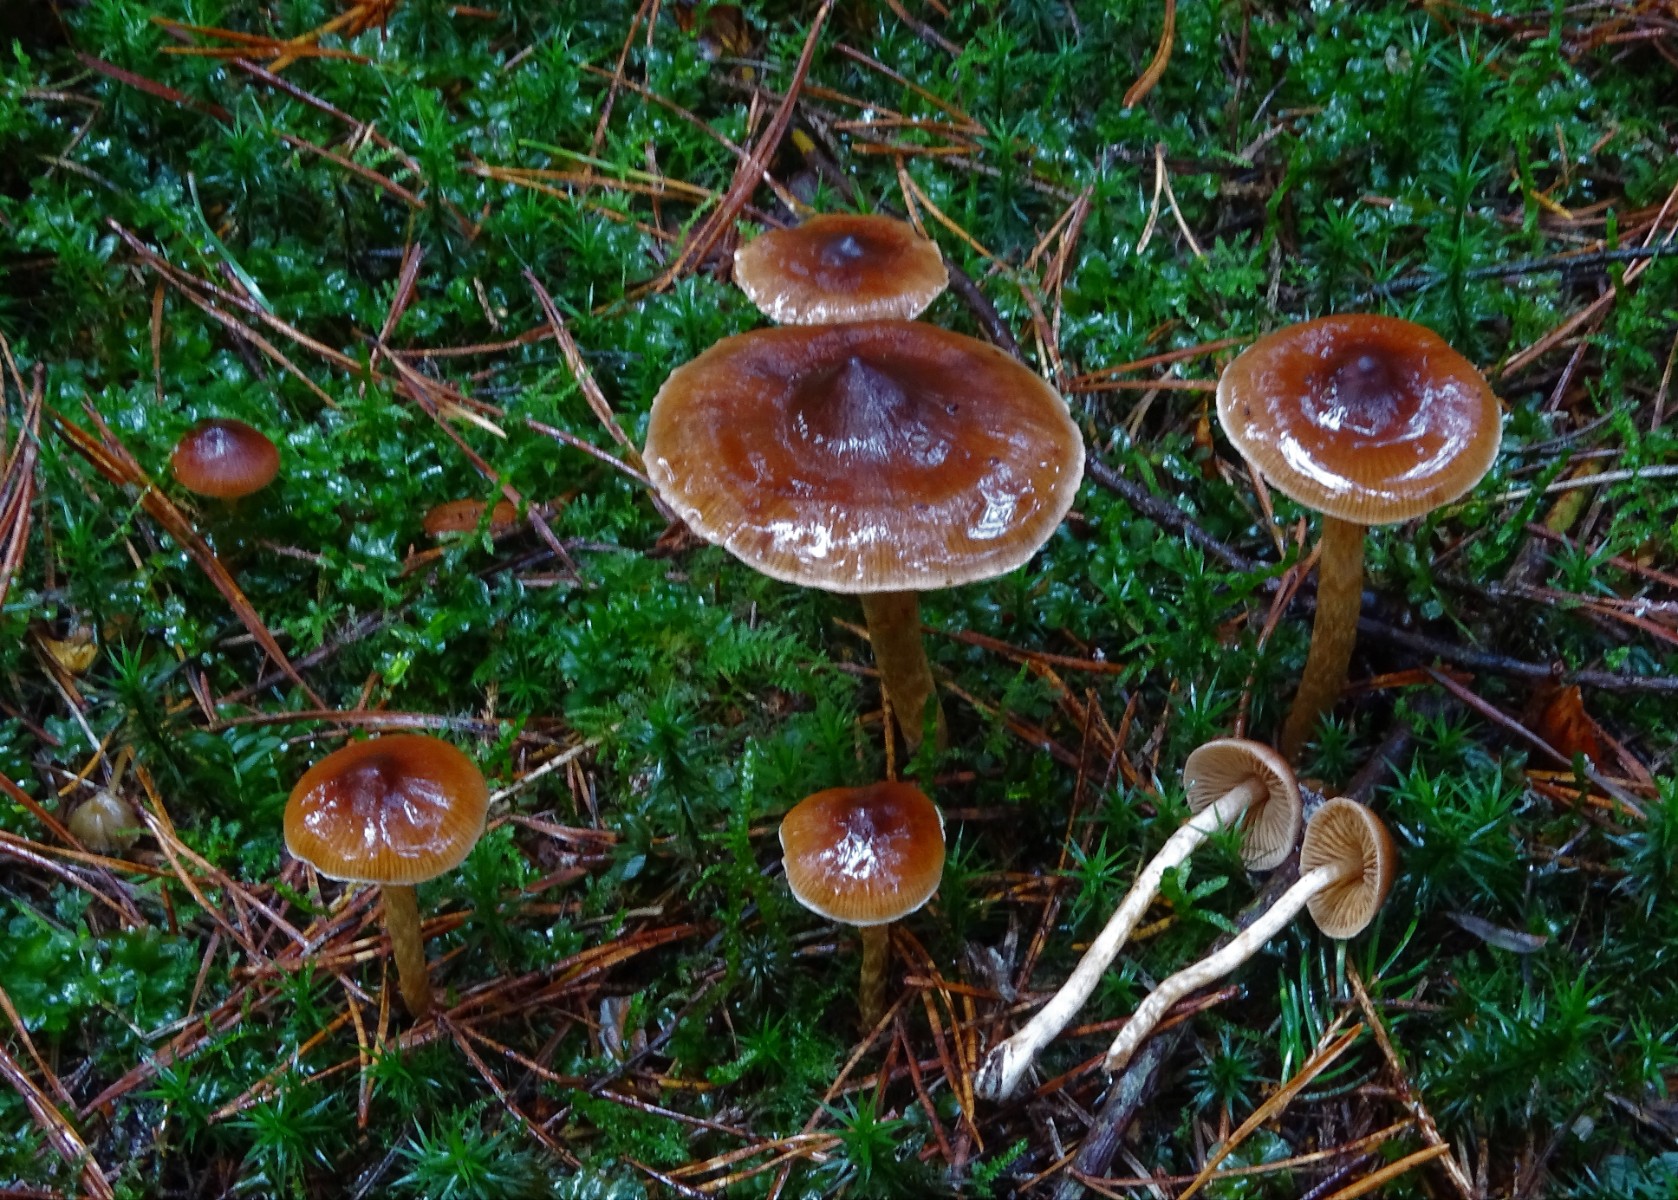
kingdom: Fungi
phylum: Basidiomycota
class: Agaricomycetes
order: Agaricales
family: Cortinariaceae
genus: Cortinarius
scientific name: Cortinarius
